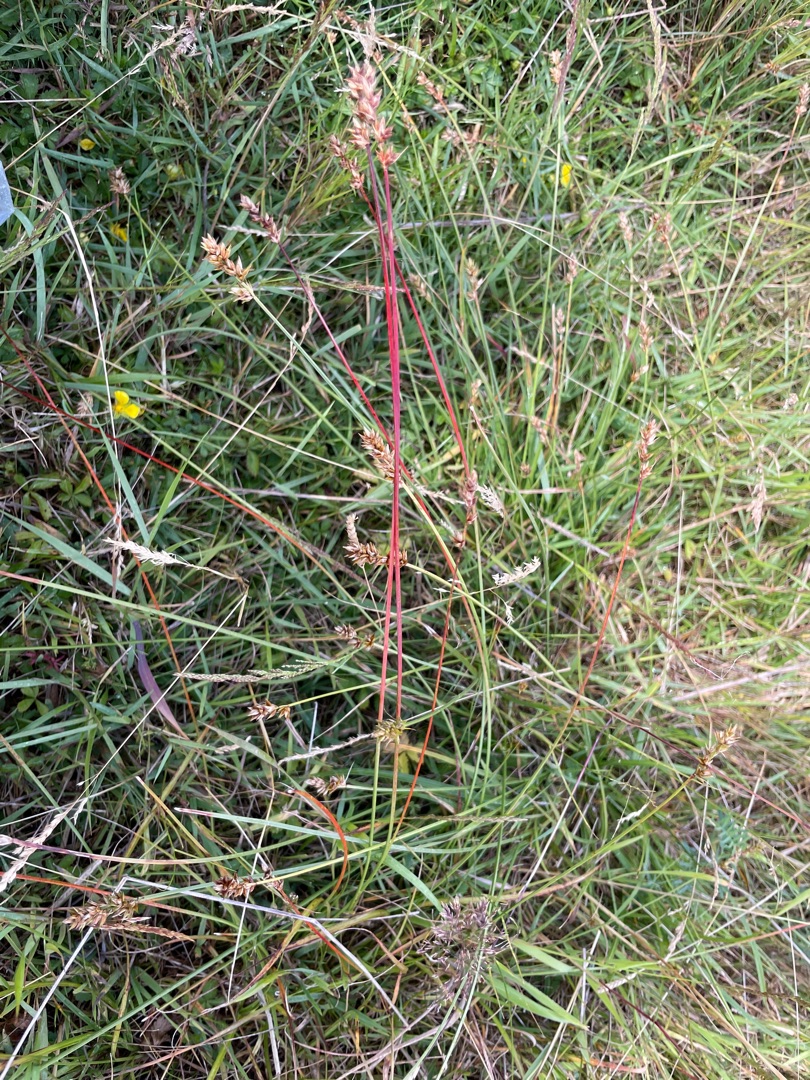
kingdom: Plantae
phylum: Tracheophyta
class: Liliopsida
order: Poales
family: Cyperaceae
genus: Carex
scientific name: Carex spicata
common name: Spidskapslet star
